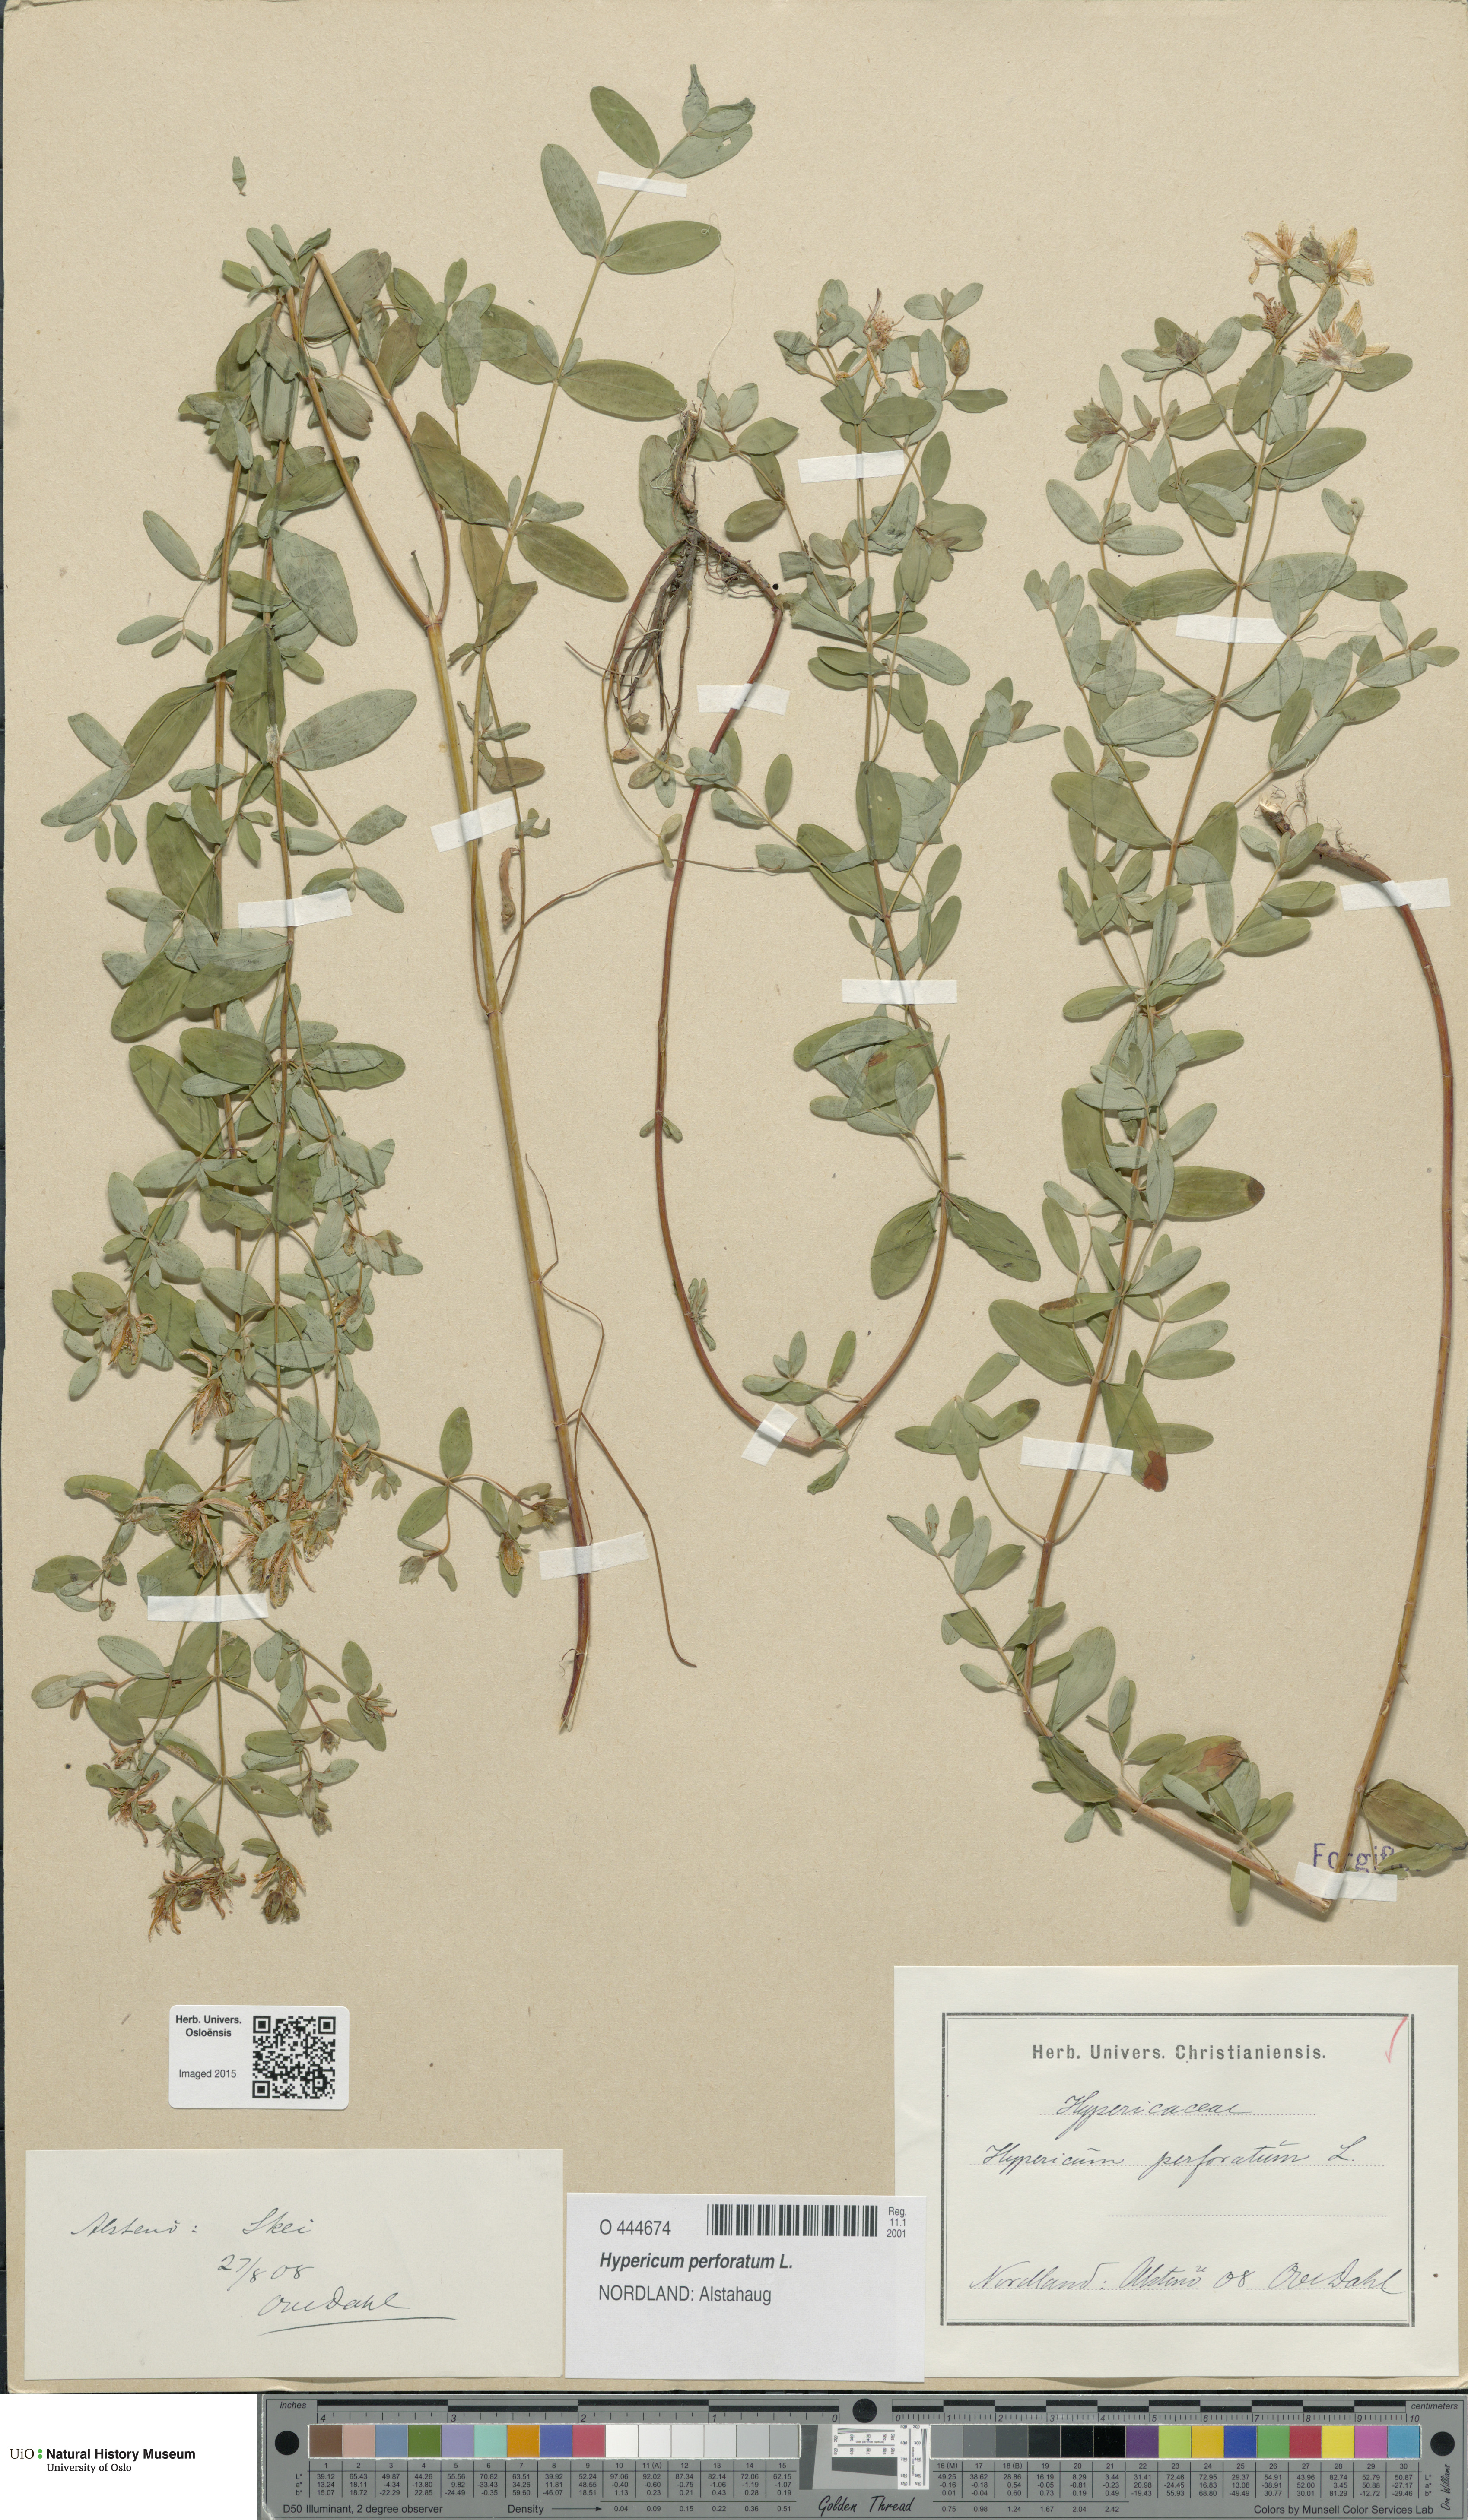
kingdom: Plantae
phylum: Tracheophyta
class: Magnoliopsida
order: Malpighiales
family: Hypericaceae
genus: Hypericum
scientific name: Hypericum perforatum
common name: Common st. johnswort
